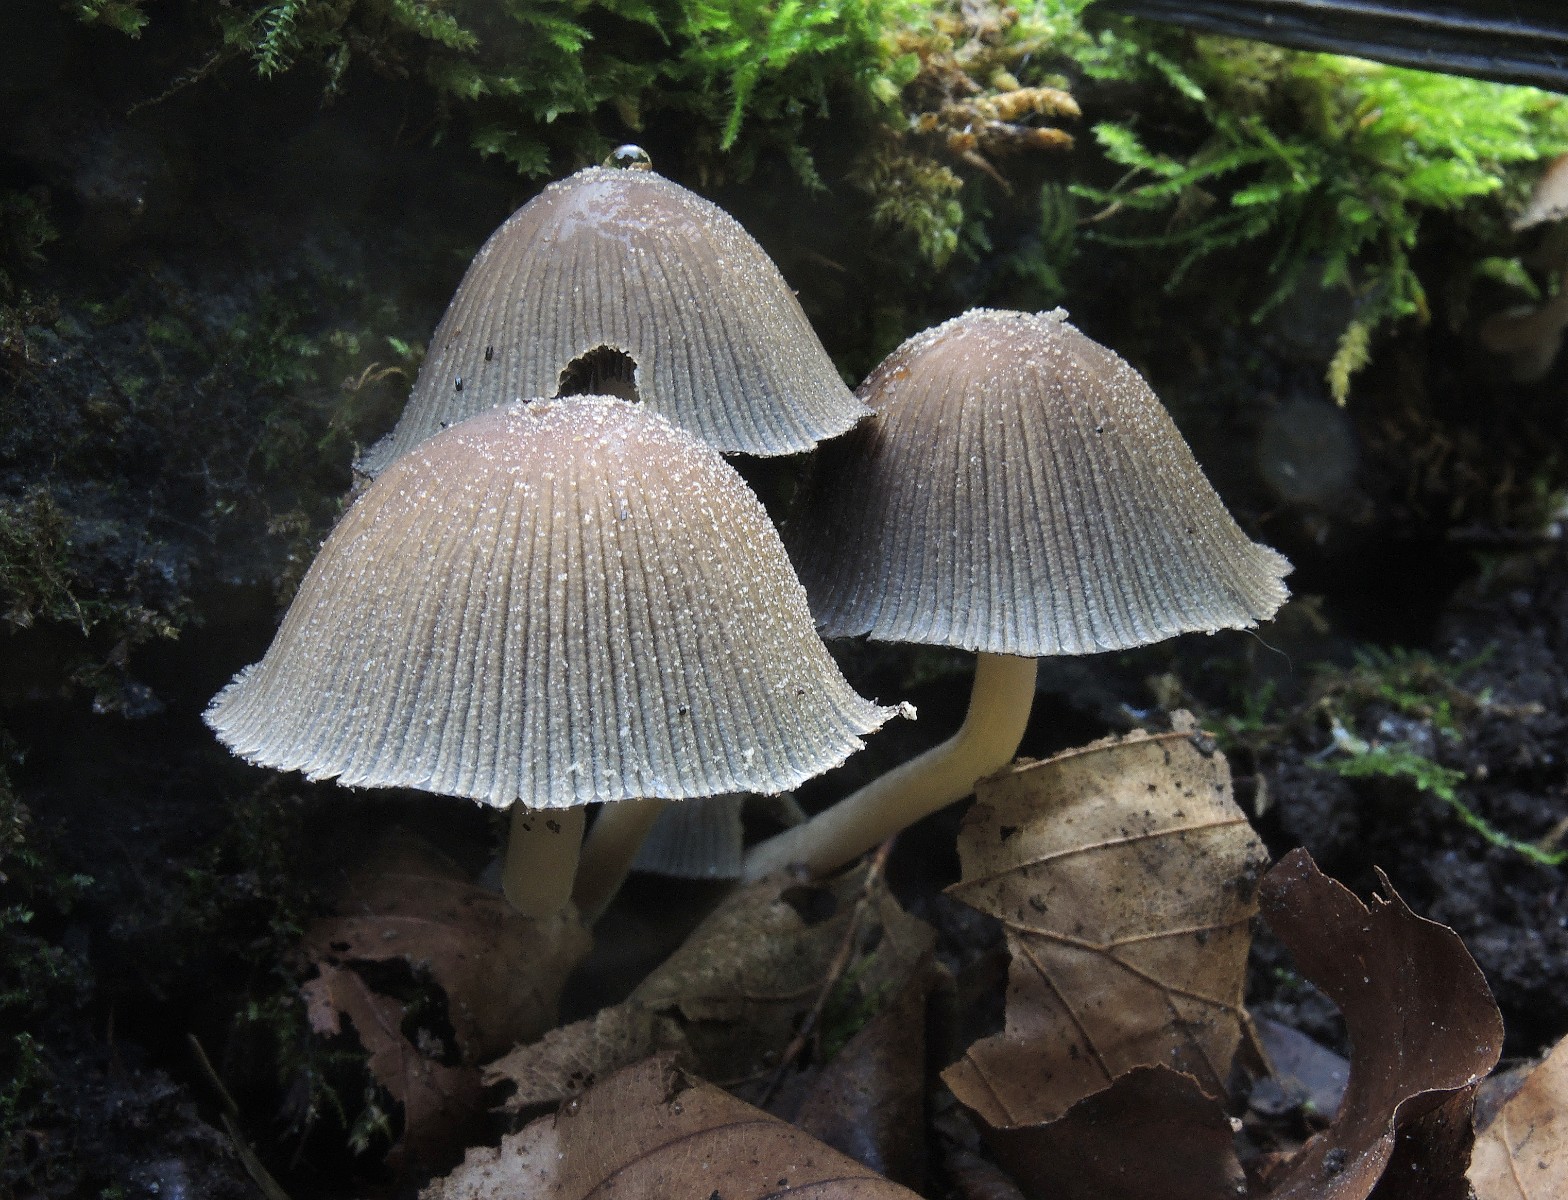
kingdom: Fungi
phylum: Basidiomycota
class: Agaricomycetes
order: Agaricales
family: Psathyrellaceae
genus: Coprinellus
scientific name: Coprinellus micaceus
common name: glimmer-blækhat
